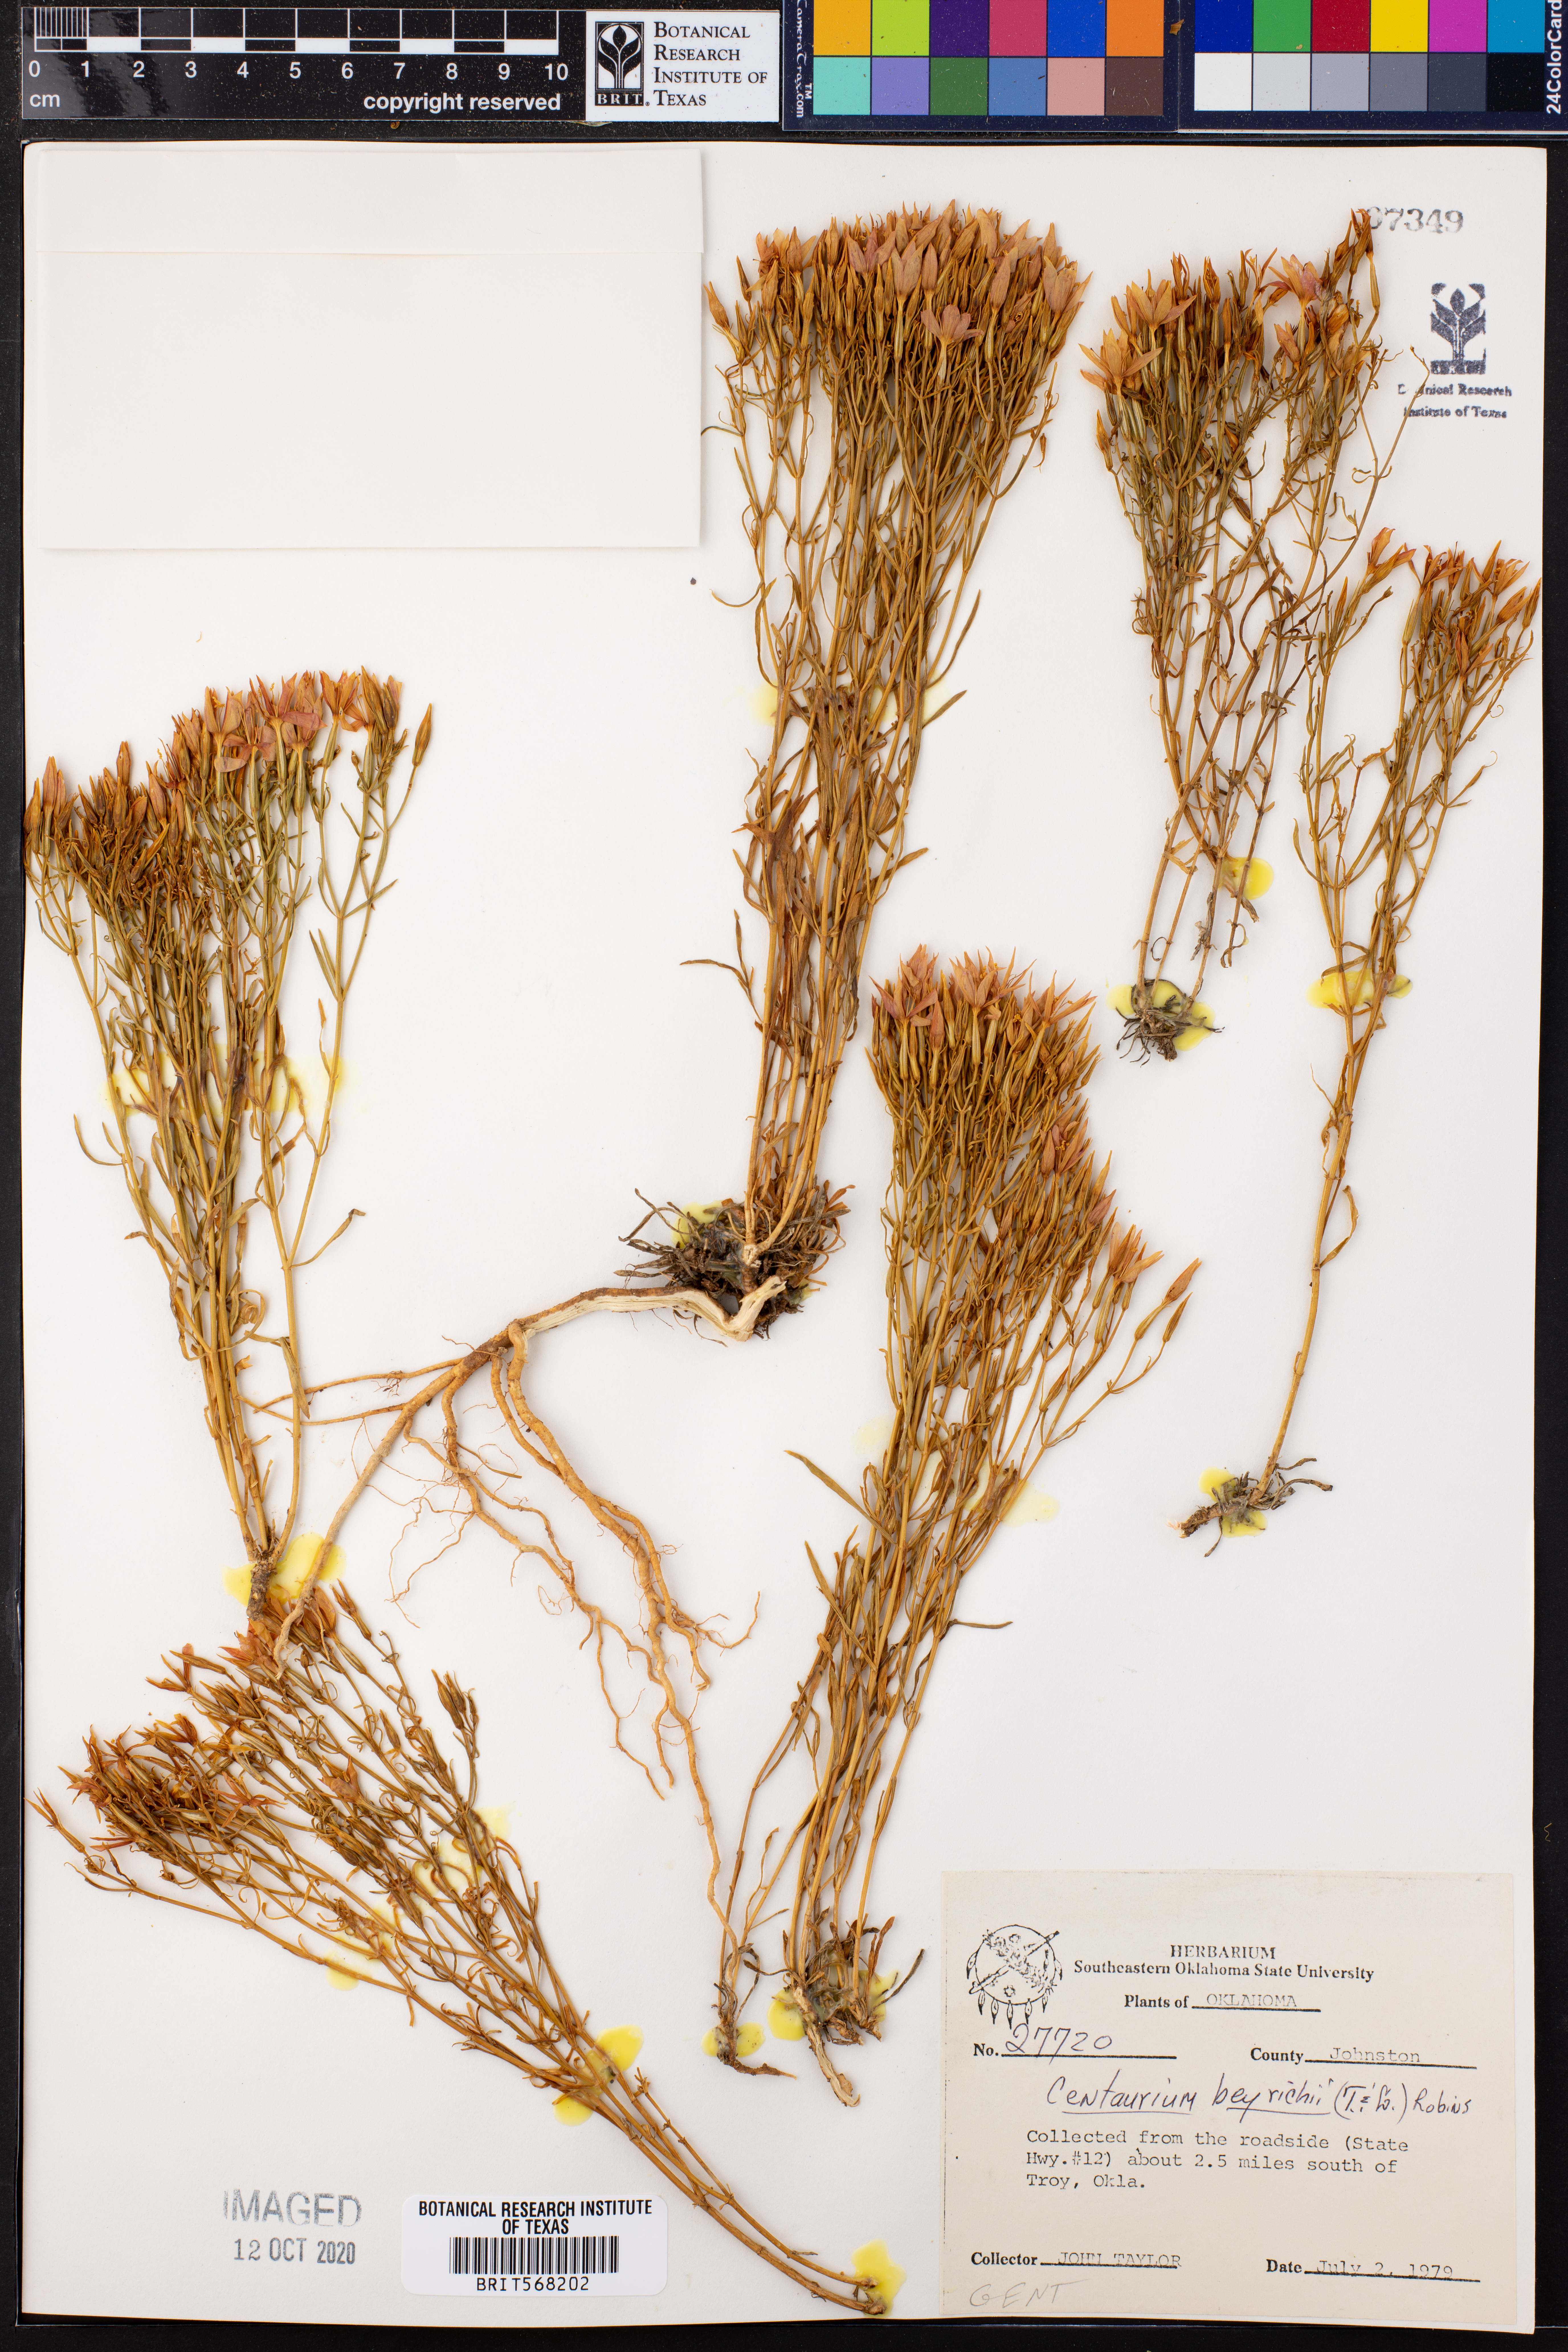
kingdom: Plantae
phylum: Tracheophyta
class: Magnoliopsida
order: Gentianales
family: Gentianaceae
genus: Zeltnera
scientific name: Zeltnera beyrichii
